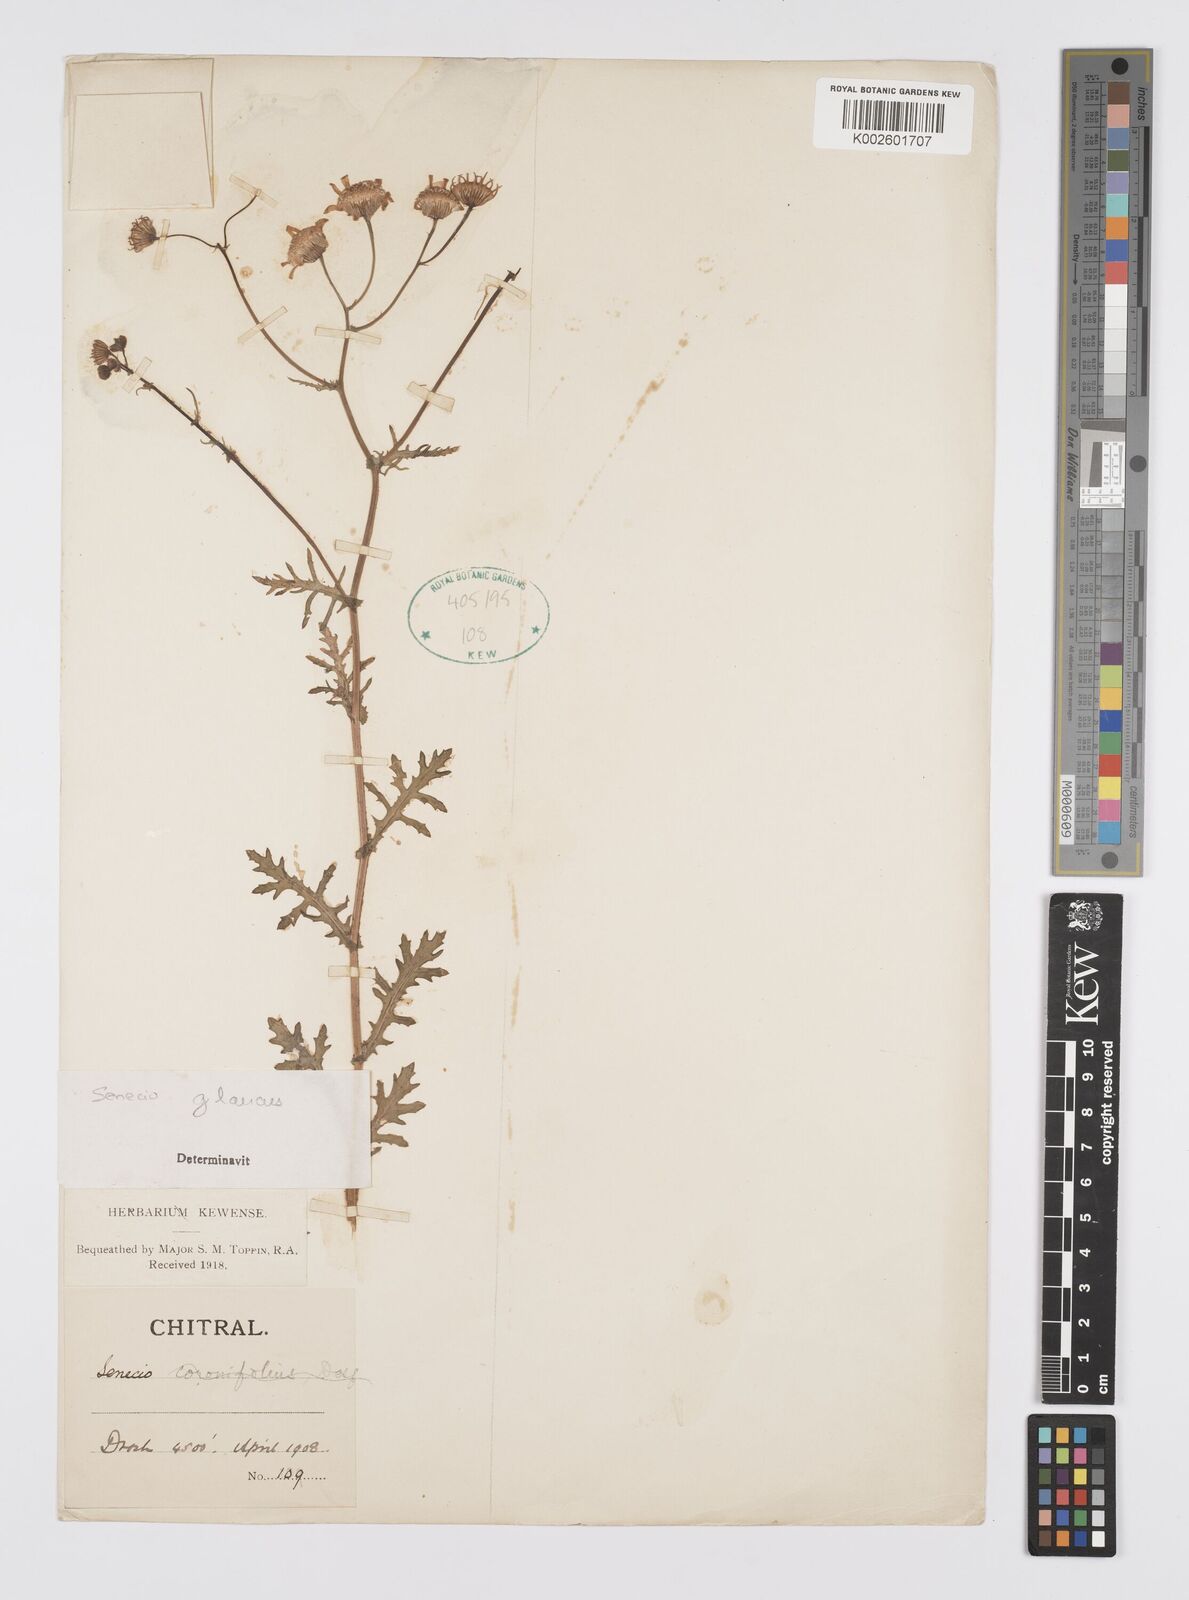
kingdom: Plantae
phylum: Tracheophyta
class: Magnoliopsida
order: Asterales
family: Asteraceae
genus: Senecio
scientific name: Senecio glaucus
